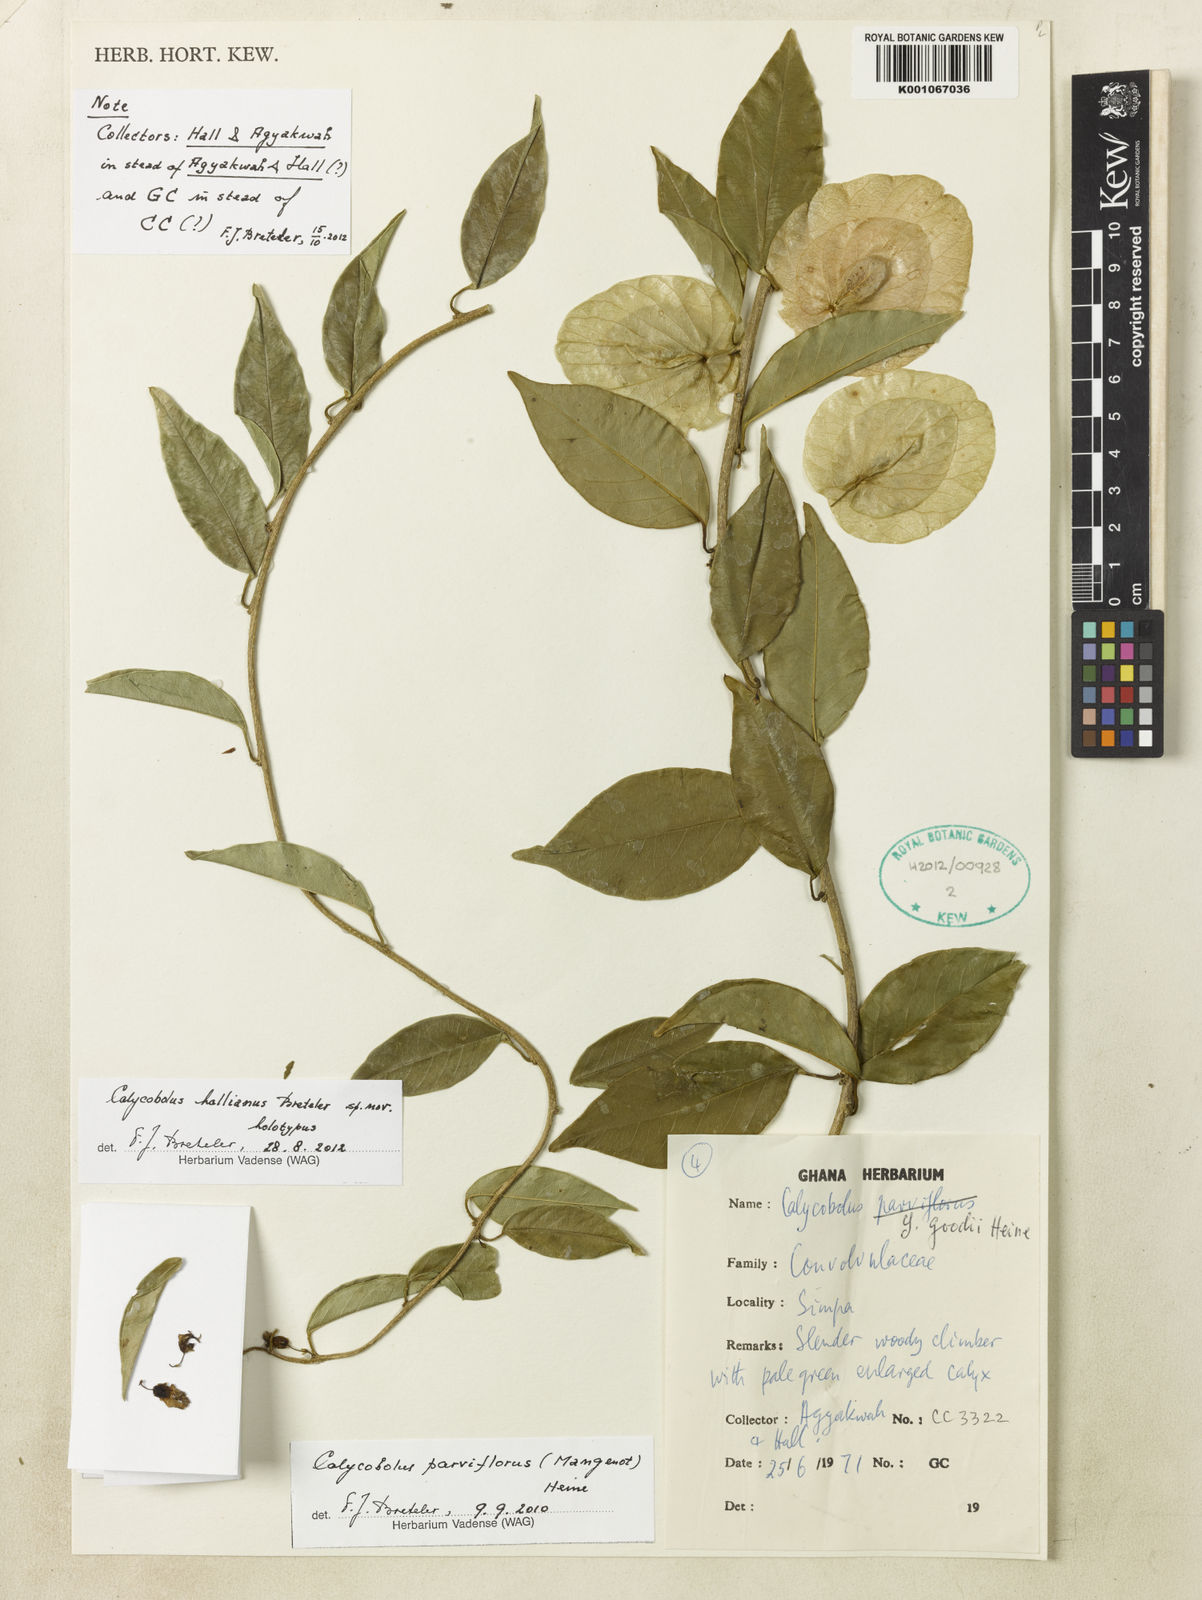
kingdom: Plantae
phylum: Tracheophyta
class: Magnoliopsida
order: Solanales
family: Convolvulaceae
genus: Calycobolus
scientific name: Calycobolus hallianus
